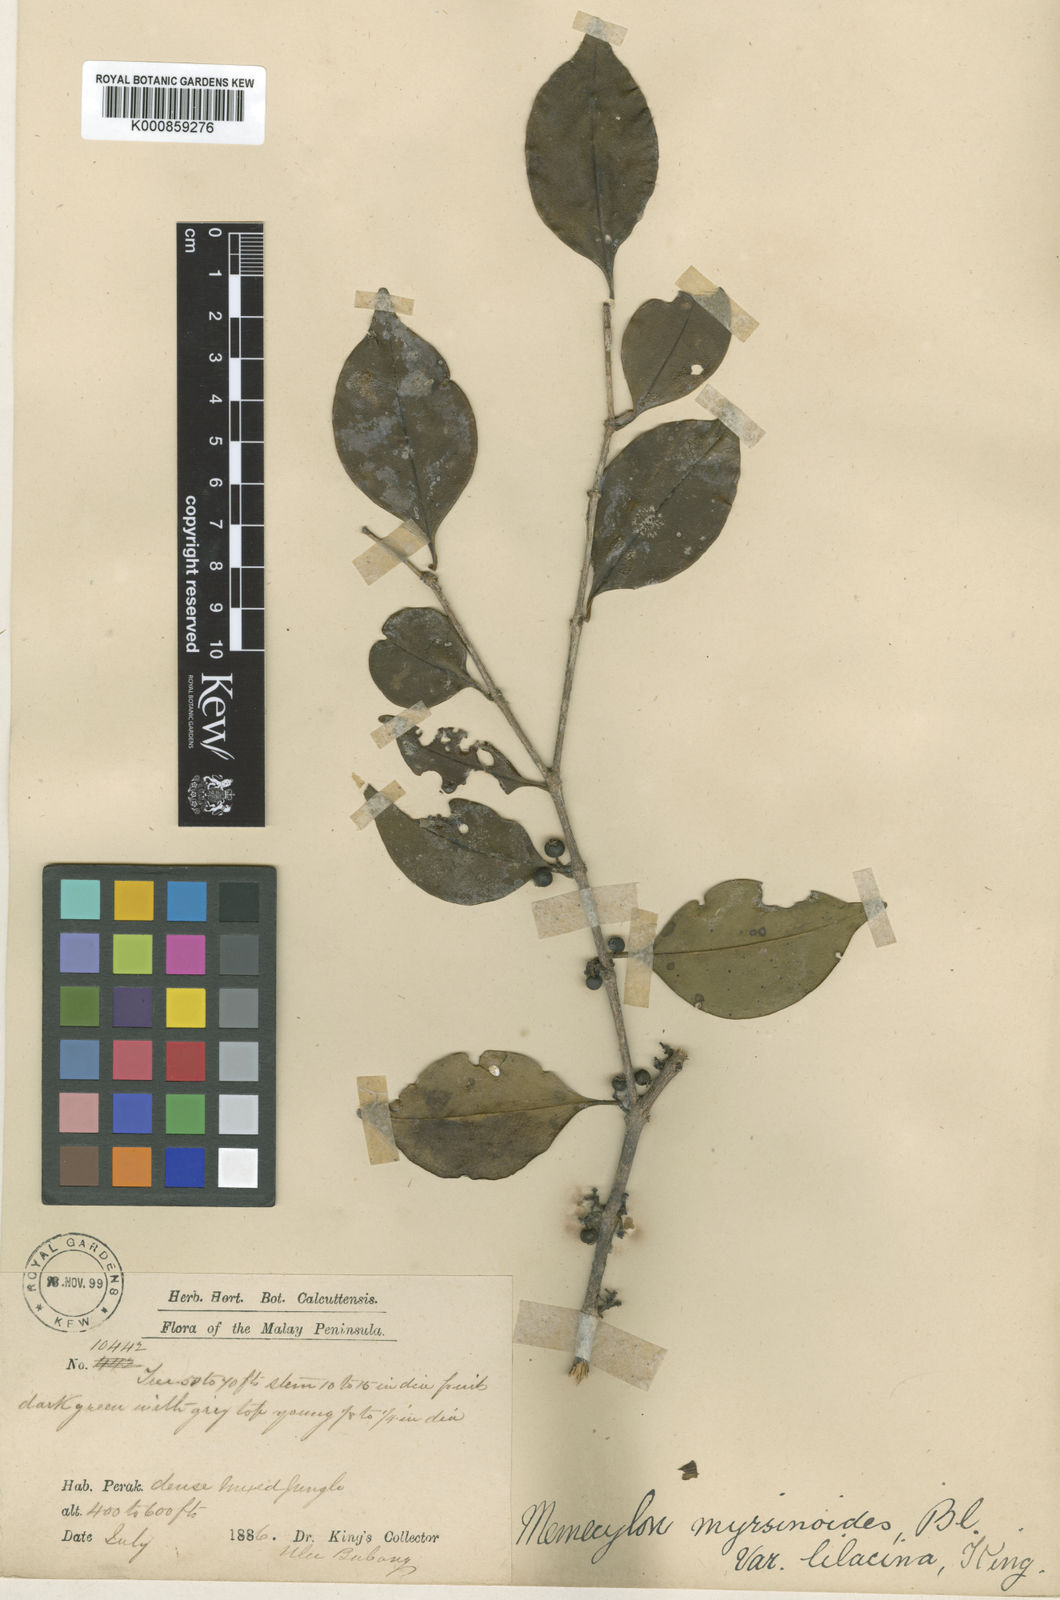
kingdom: Plantae
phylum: Tracheophyta
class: Magnoliopsida
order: Myrtales
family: Melastomataceae
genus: Memecylon
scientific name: Memecylon lilacinum
